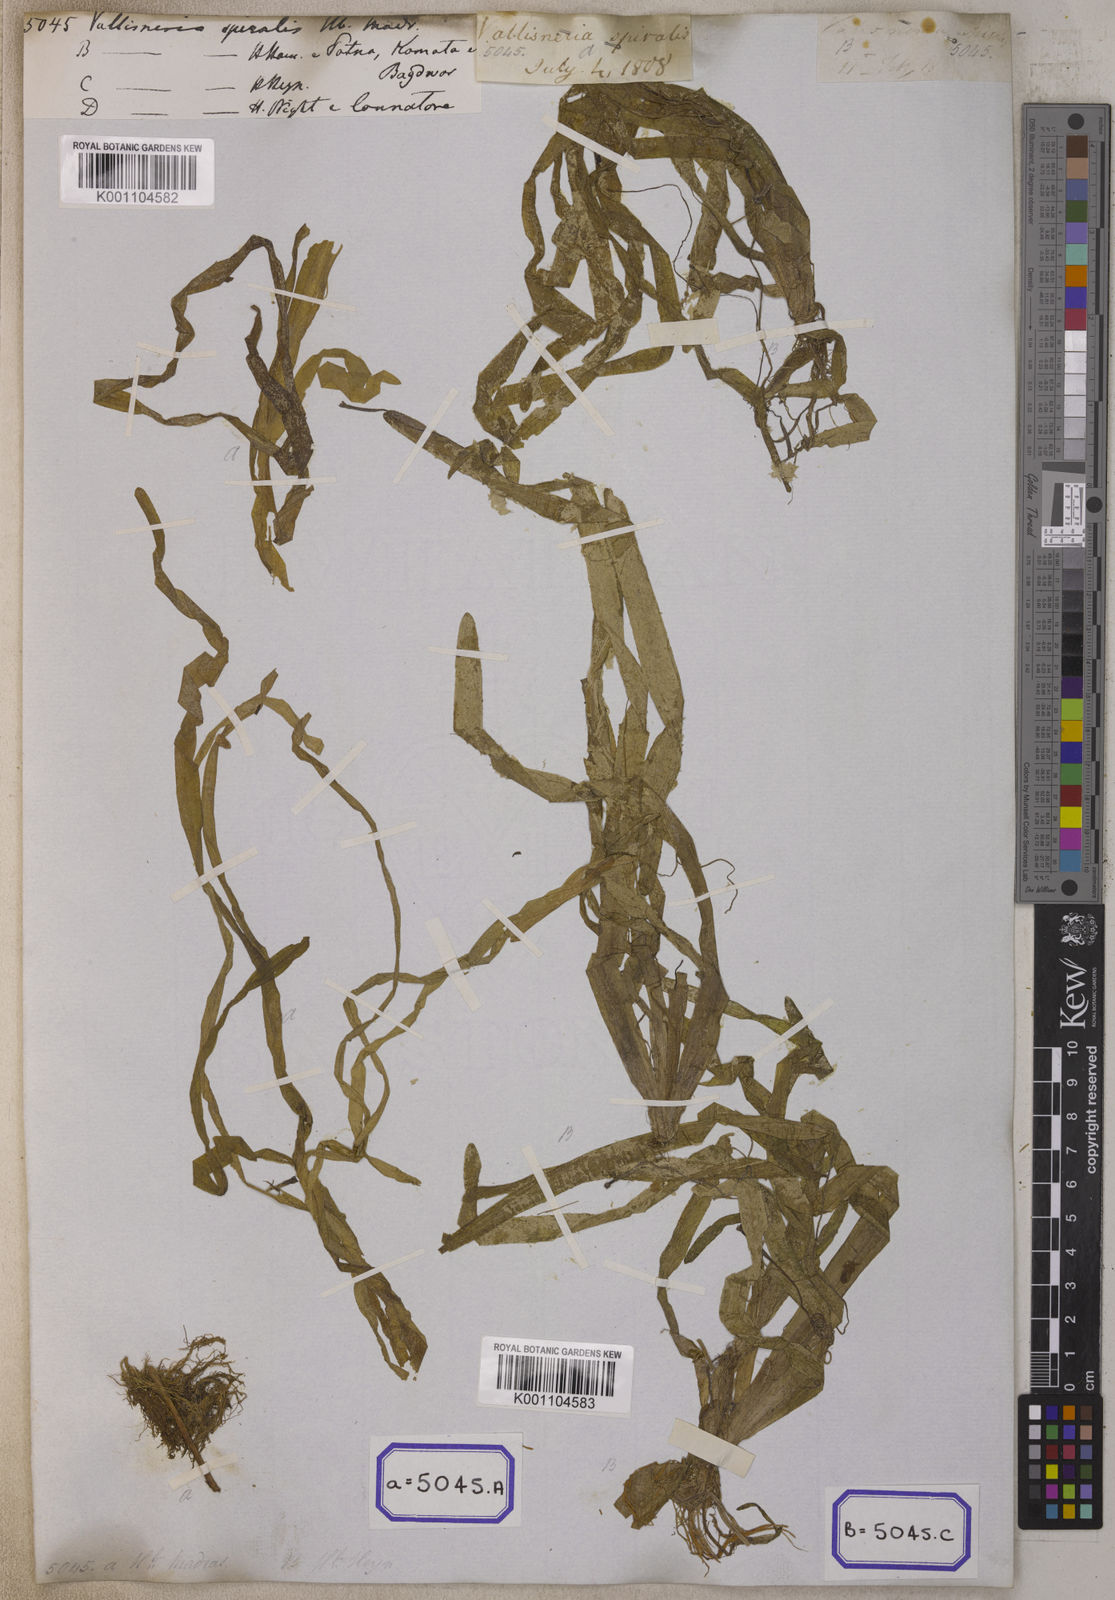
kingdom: Plantae
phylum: Tracheophyta
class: Liliopsida
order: Alismatales
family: Hydrocharitaceae
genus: Vallisneria
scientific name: Vallisneria spiralis
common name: Tapegrass
